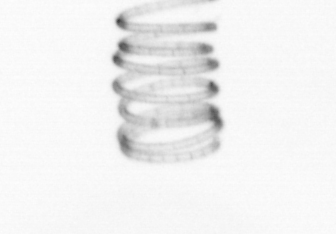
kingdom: Chromista
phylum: Ochrophyta
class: Bacillariophyceae
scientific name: Bacillariophyceae
